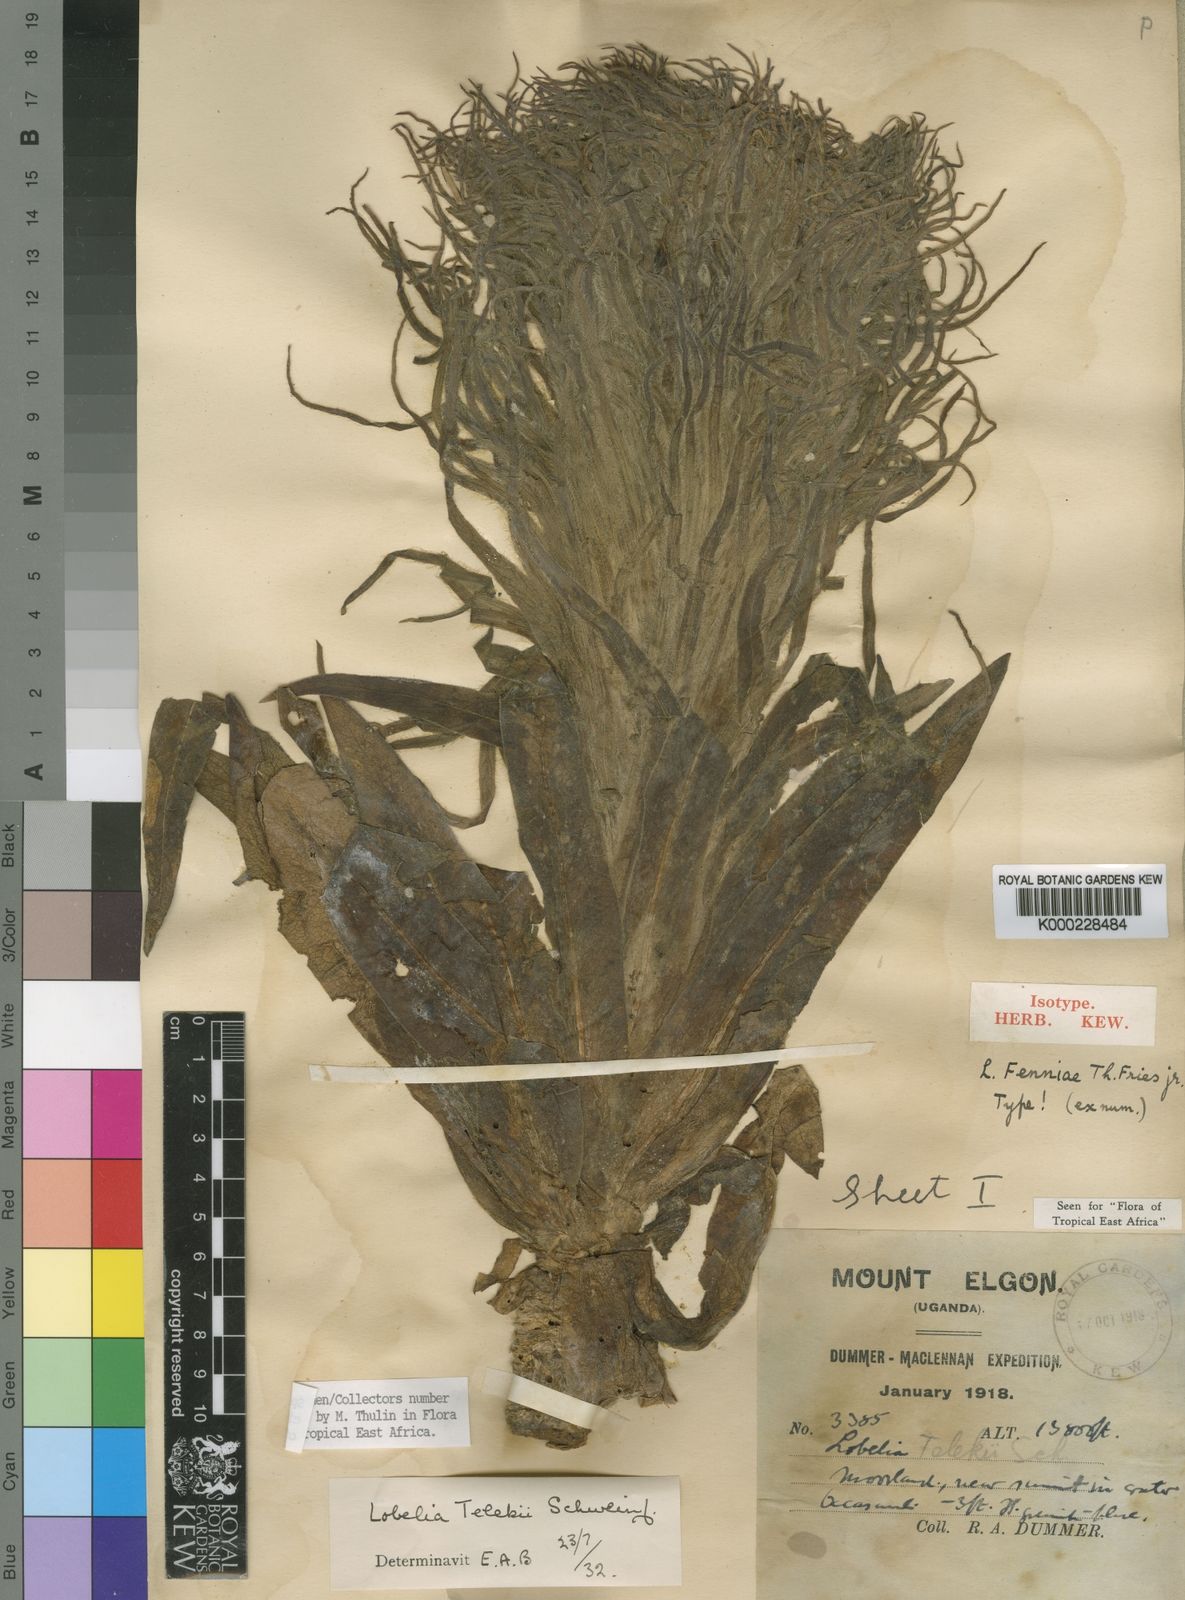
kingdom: Plantae
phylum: Tracheophyta
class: Magnoliopsida
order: Asterales
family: Campanulaceae
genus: Lobelia
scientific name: Lobelia telekii
